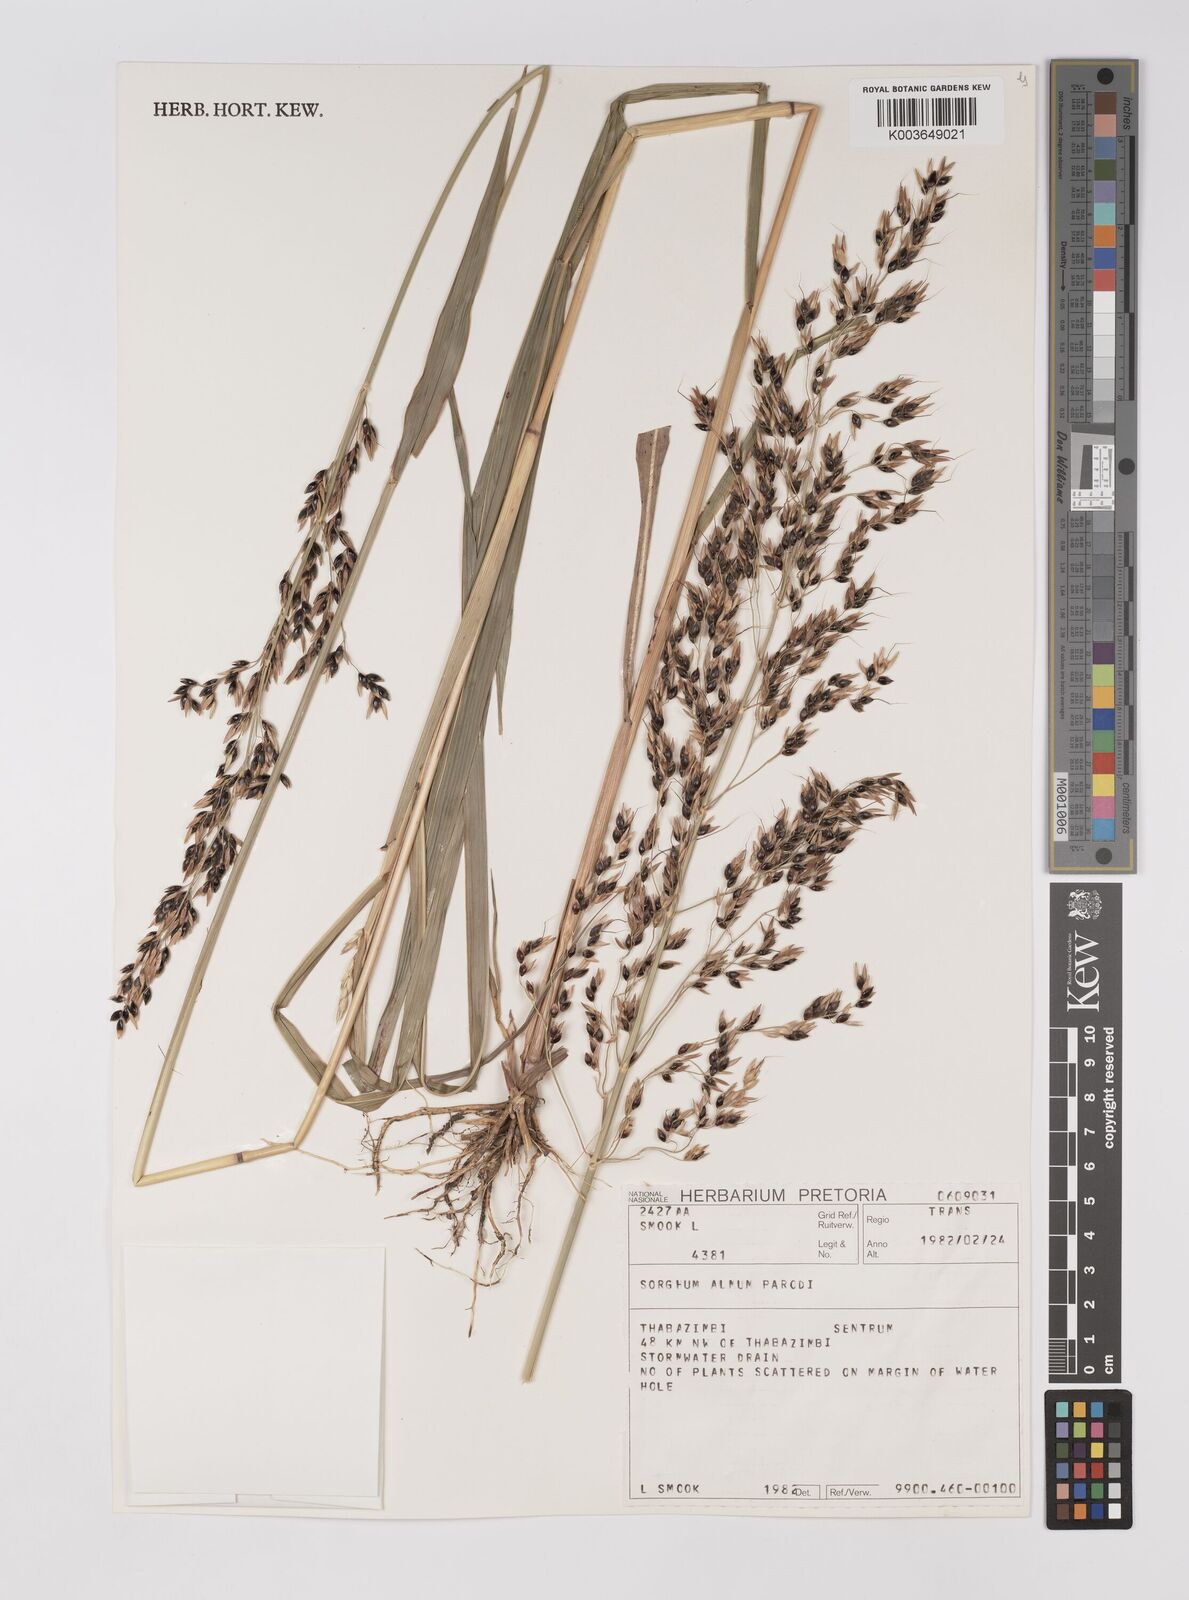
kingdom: Plantae
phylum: Tracheophyta
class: Liliopsida
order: Poales
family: Poaceae
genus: Sorghum
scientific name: Sorghum almum
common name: Columbus grass
